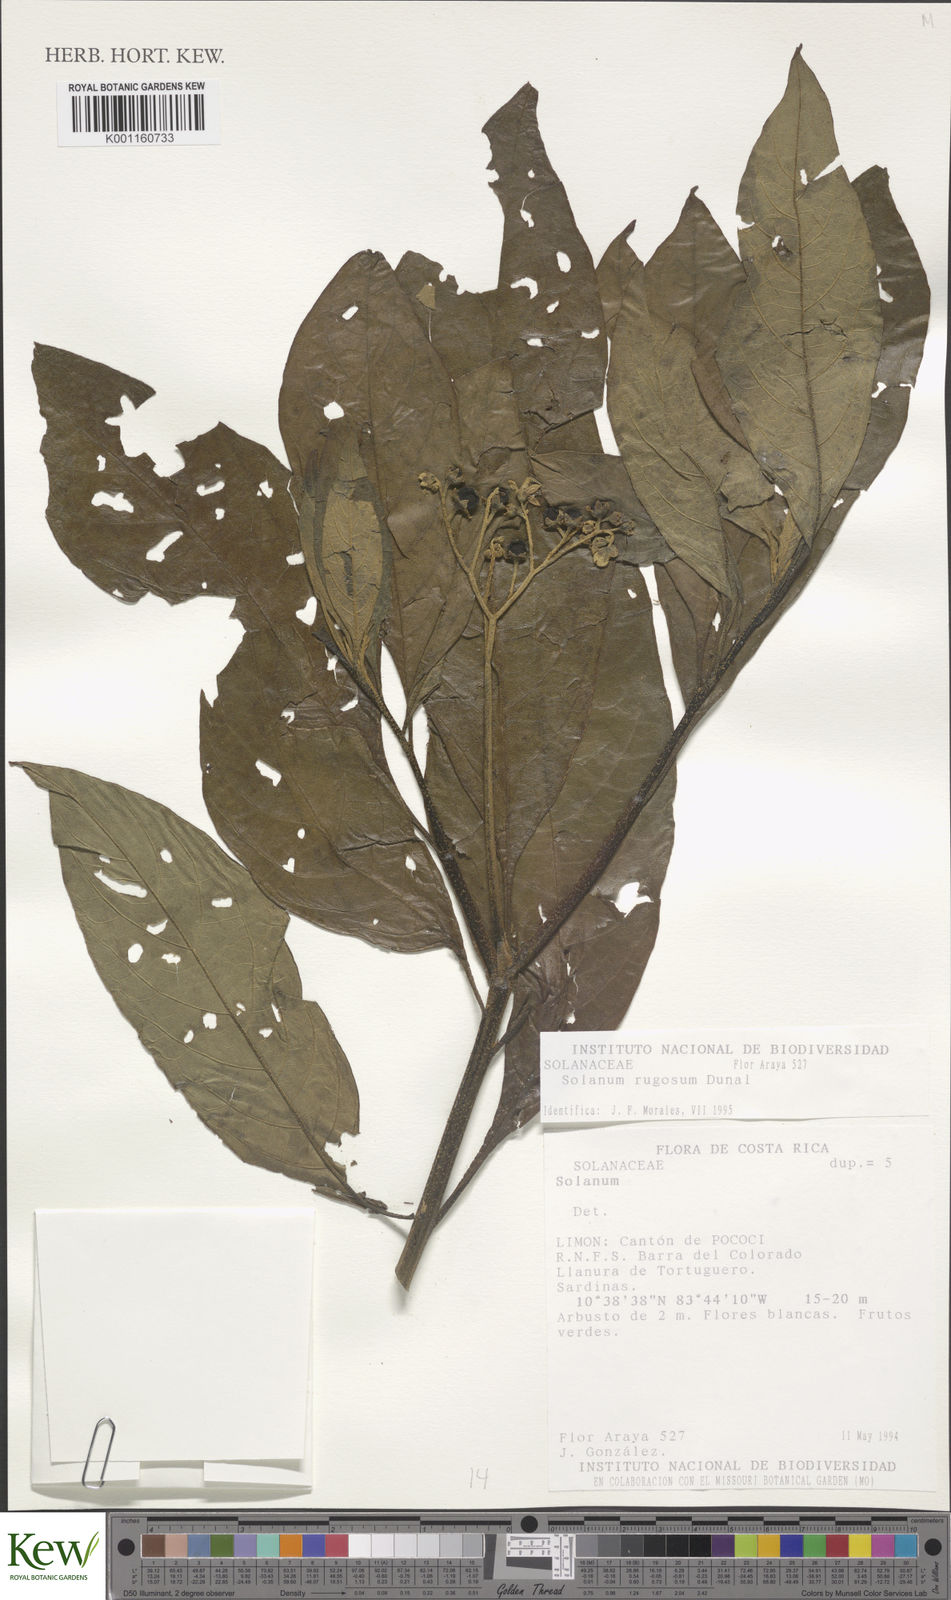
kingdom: Plantae
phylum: Tracheophyta
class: Magnoliopsida
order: Solanales
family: Solanaceae
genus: Solanum
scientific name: Solanum rugosum
